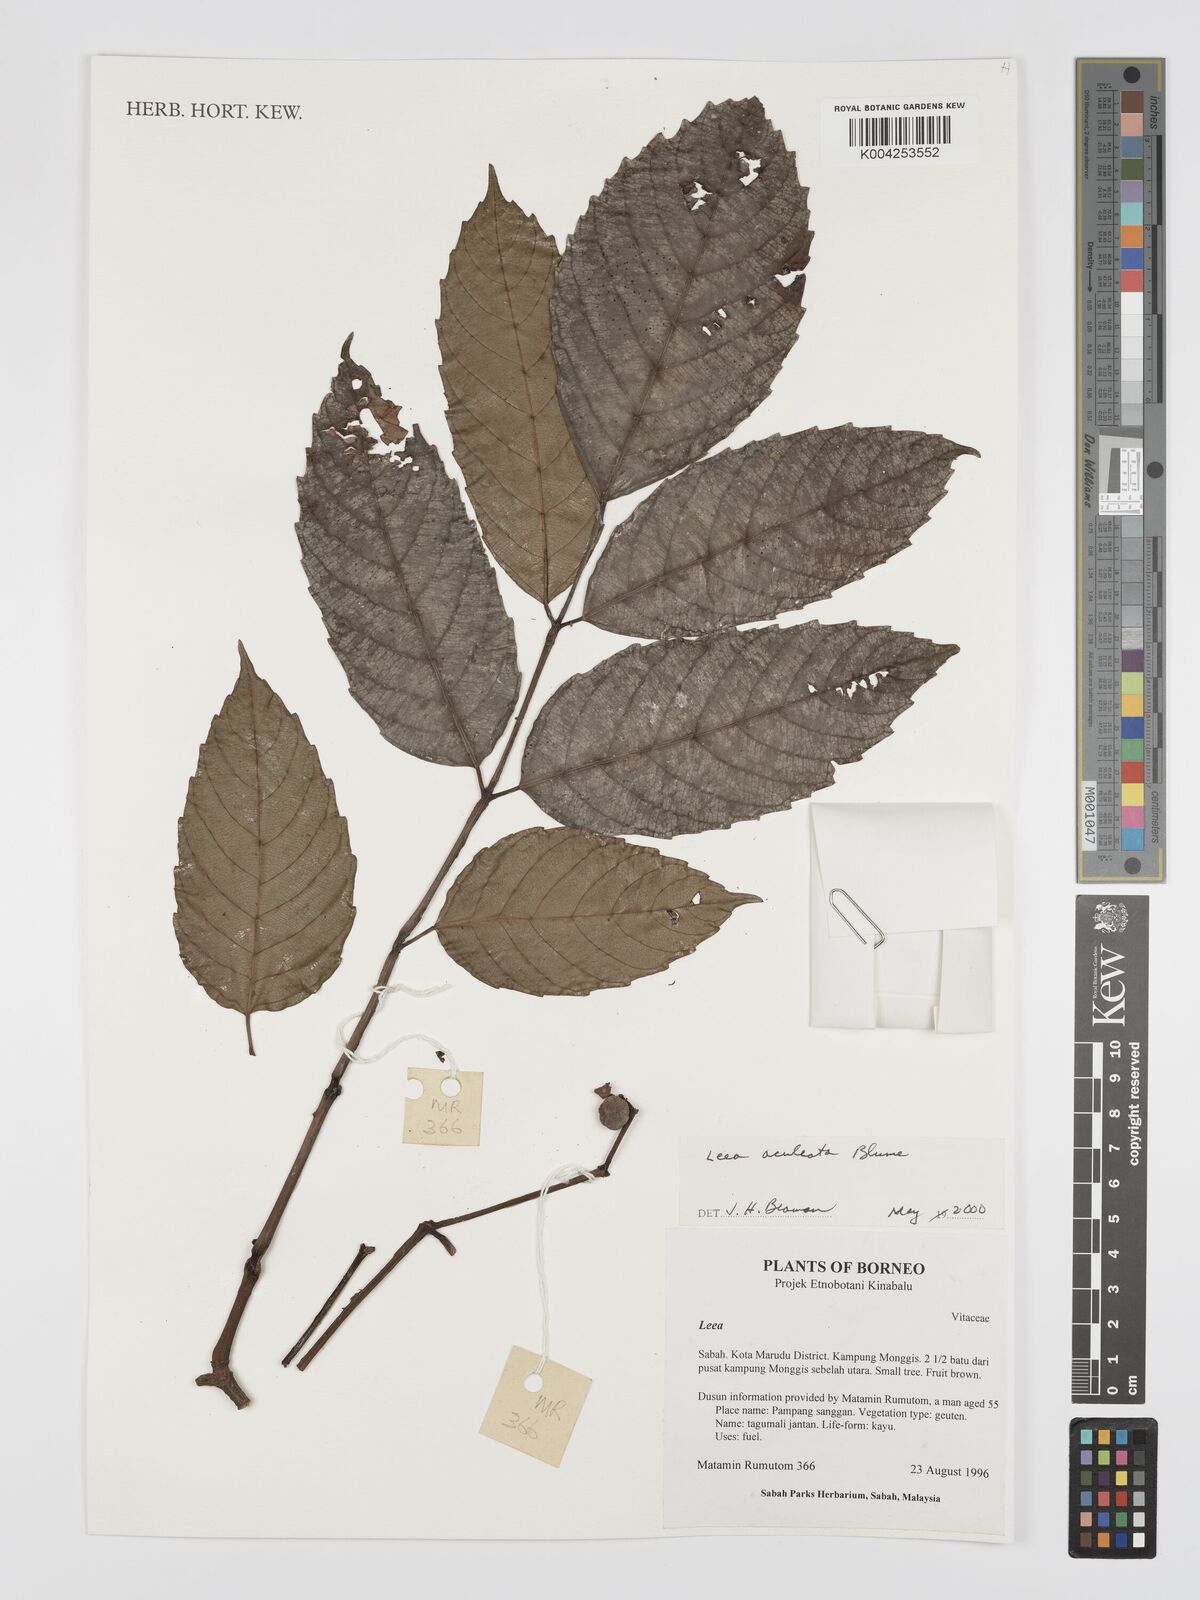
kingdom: Plantae
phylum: Tracheophyta
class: Magnoliopsida
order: Vitales
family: Vitaceae
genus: Leea
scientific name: Leea aculeata
